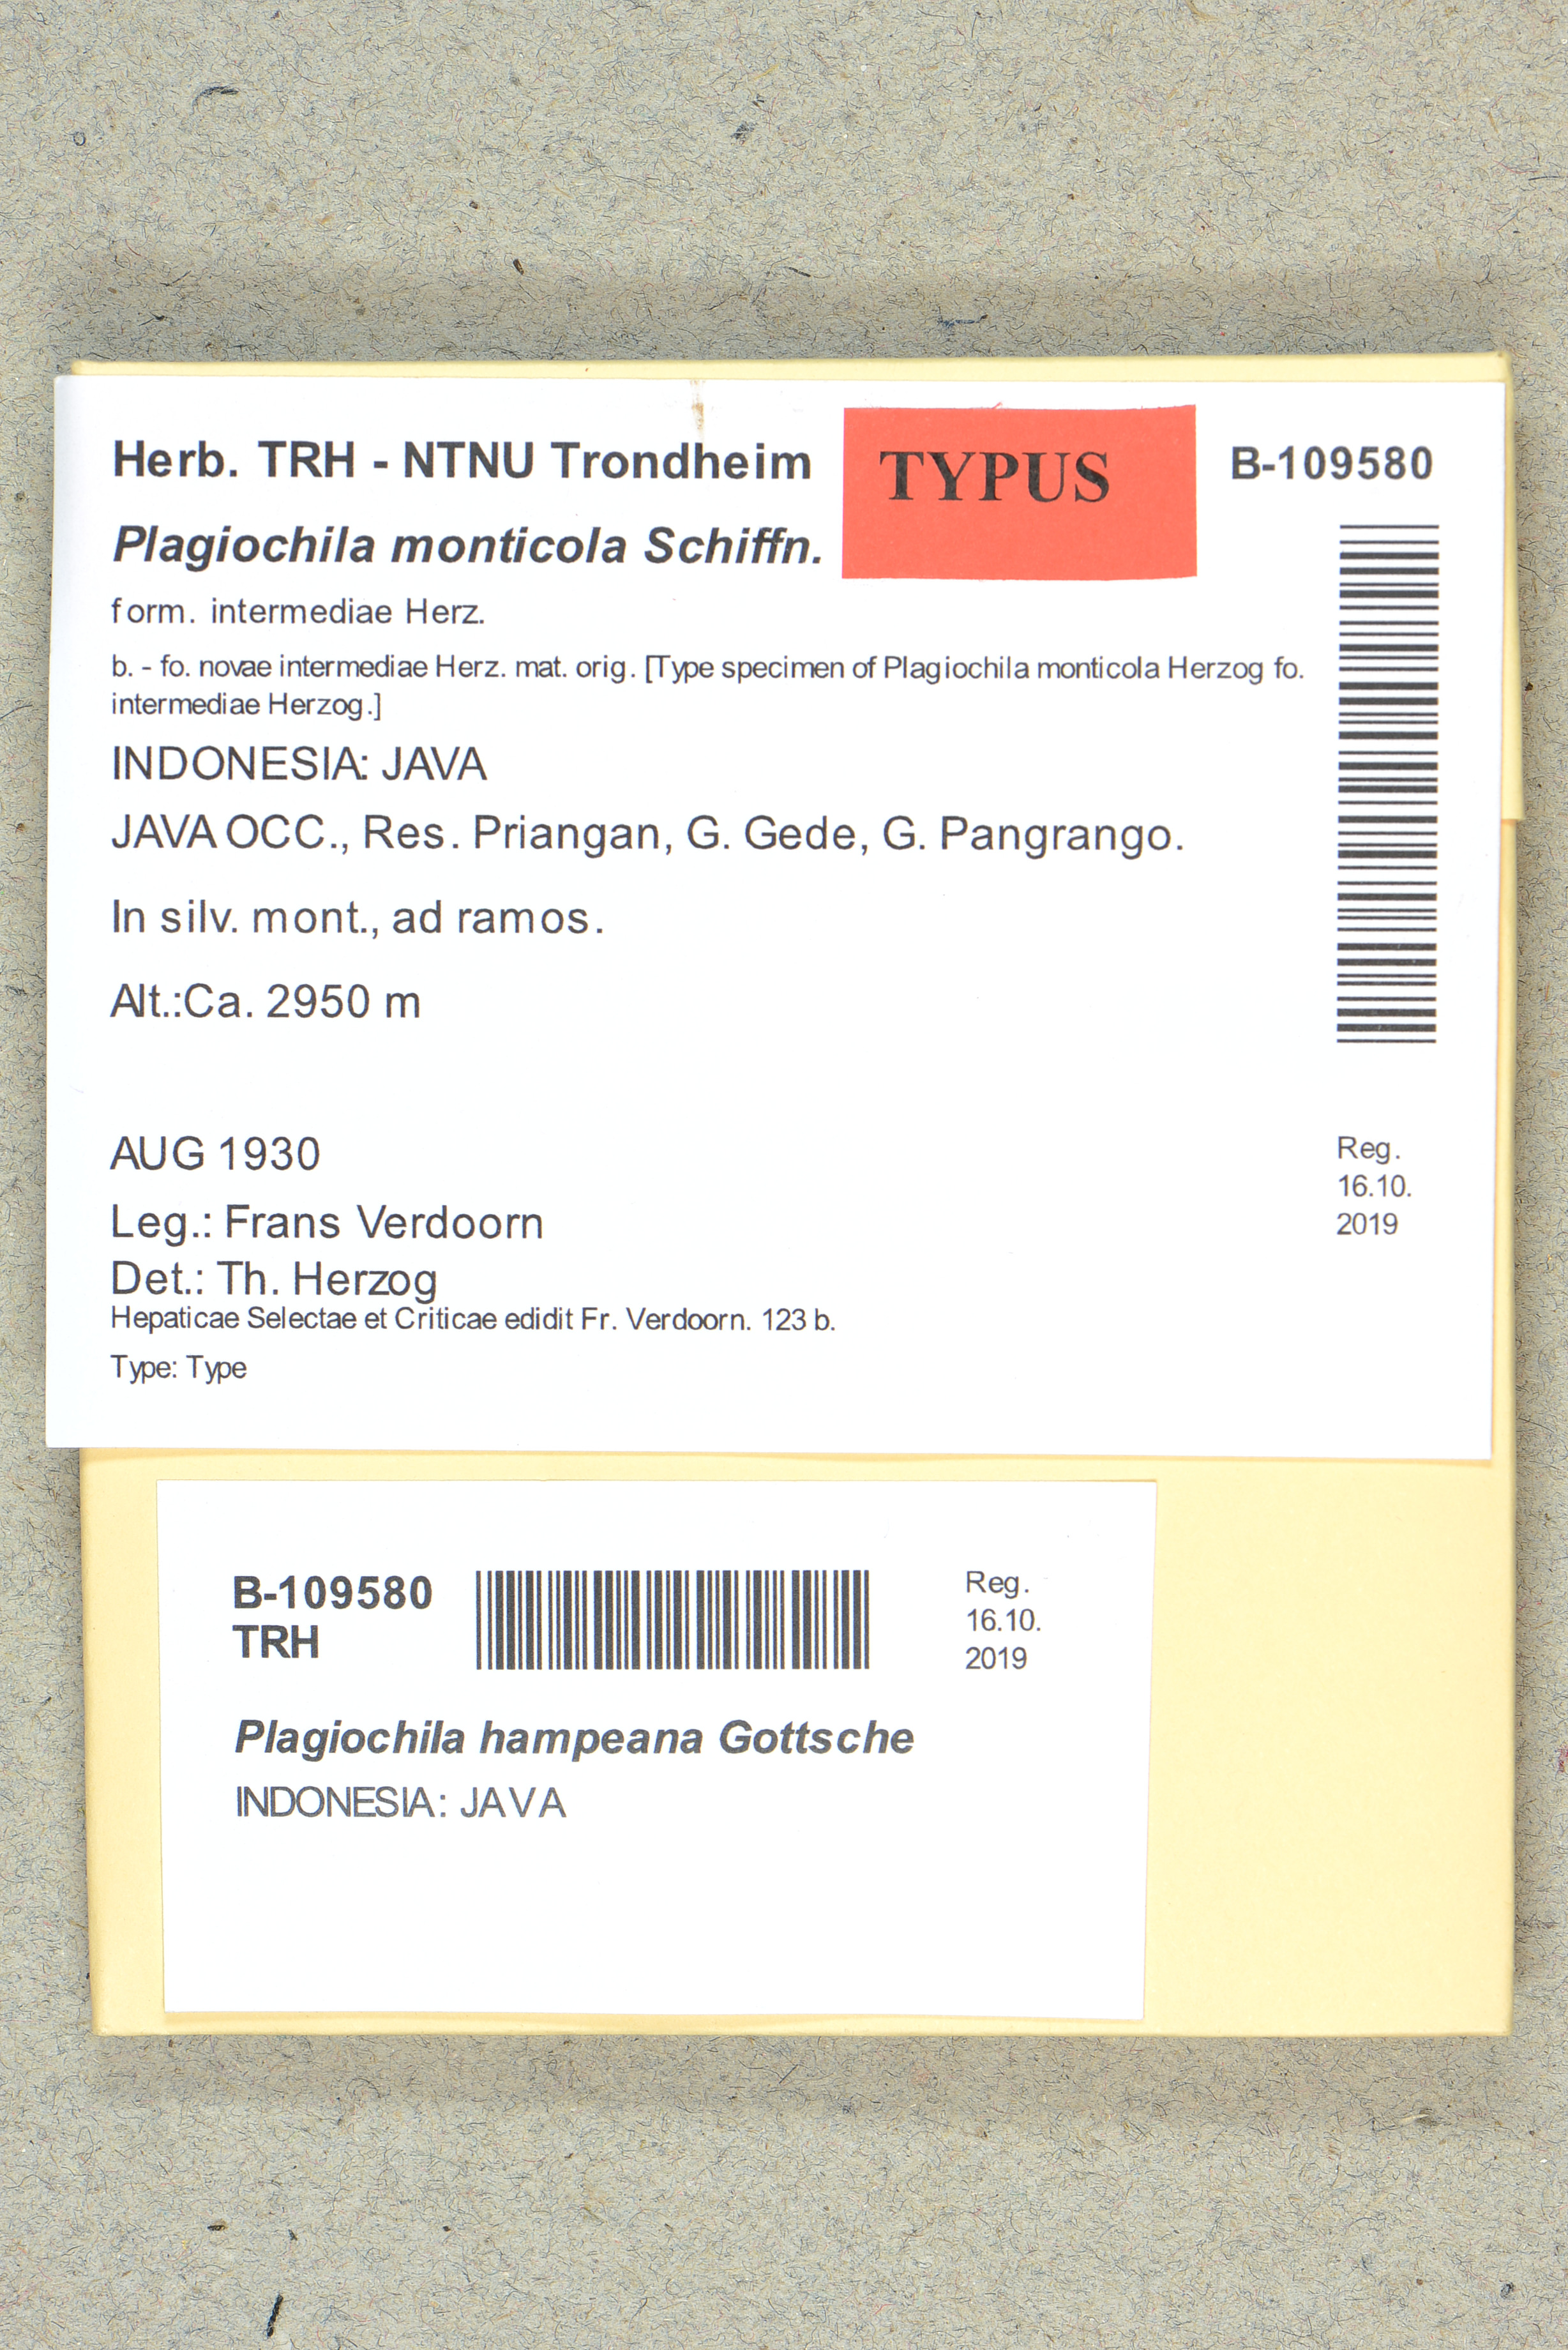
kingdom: Plantae
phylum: Marchantiophyta
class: Jungermanniopsida
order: Jungermanniales
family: Plagiochilaceae
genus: Plagiochila
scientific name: Plagiochila hampeana
